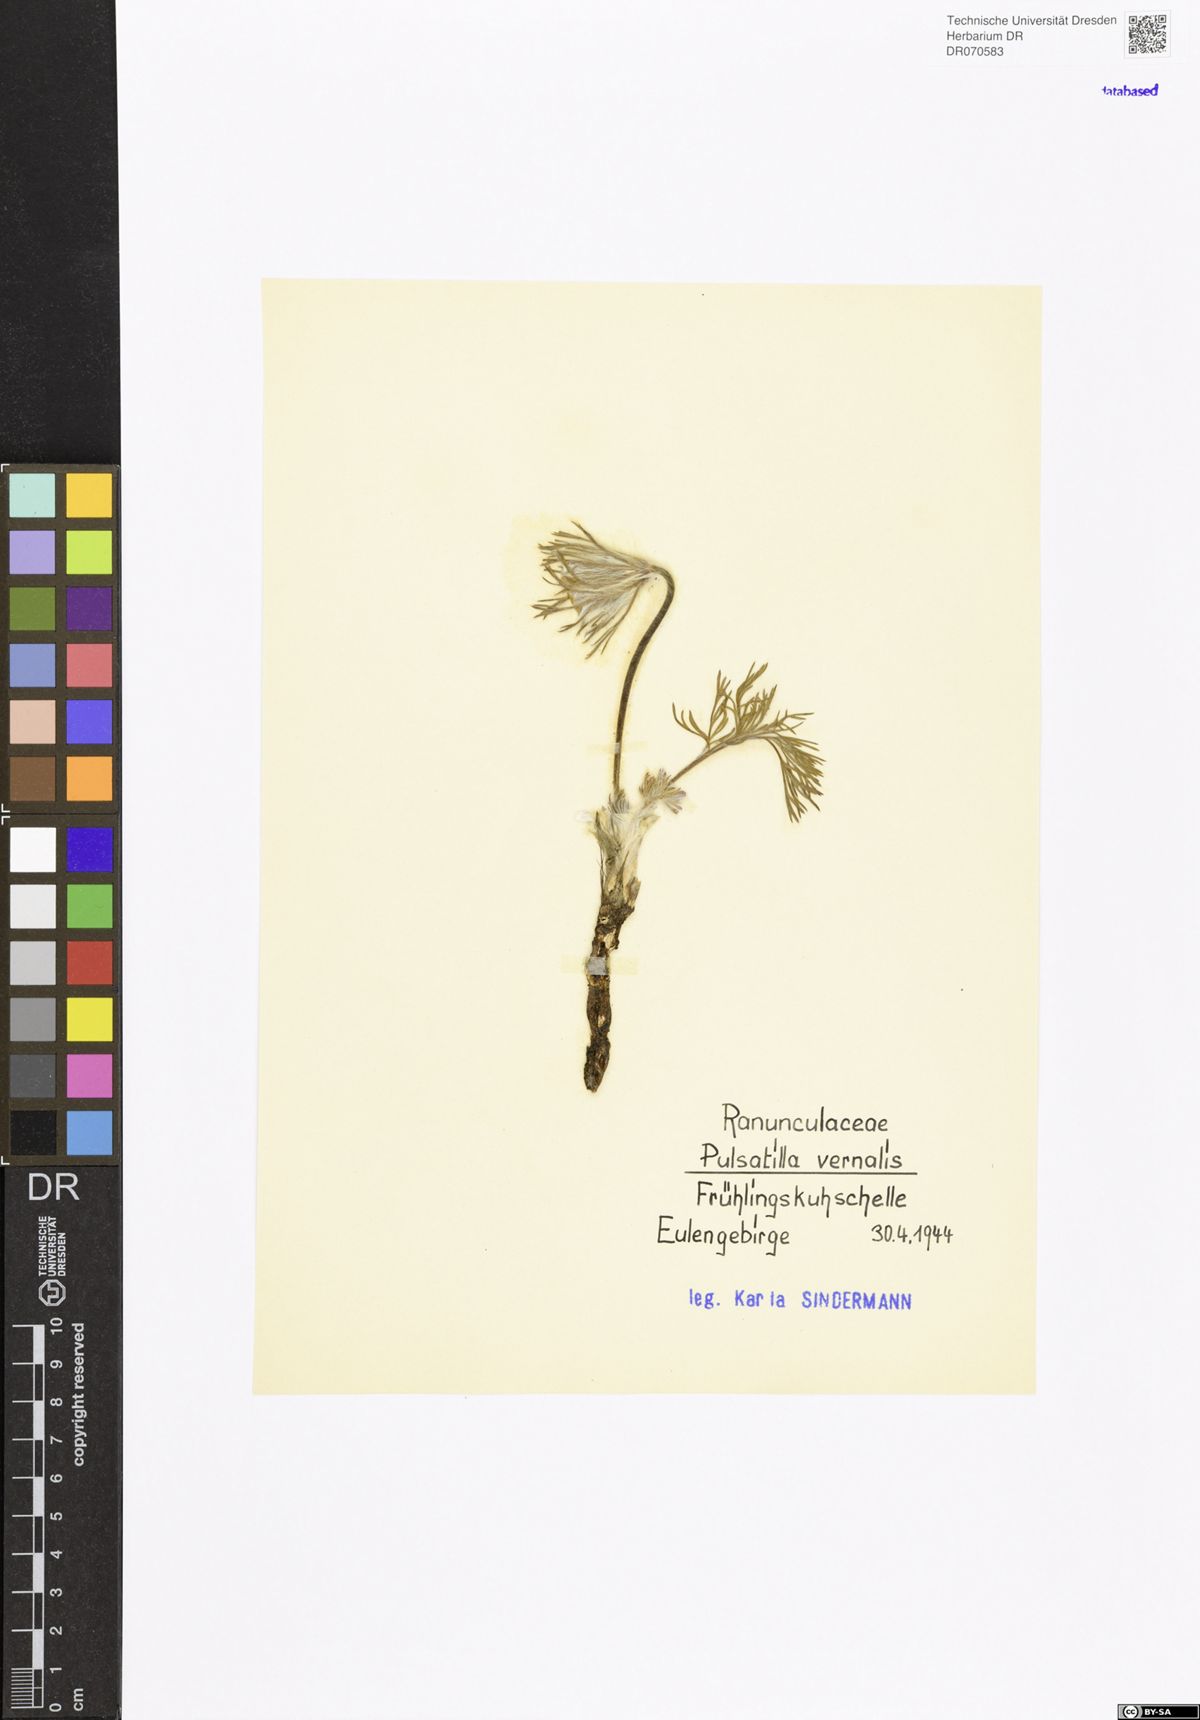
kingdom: Plantae
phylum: Tracheophyta
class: Magnoliopsida
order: Ranunculales
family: Ranunculaceae
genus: Pulsatilla
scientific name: Pulsatilla vernalis
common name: Spring pasque flower
